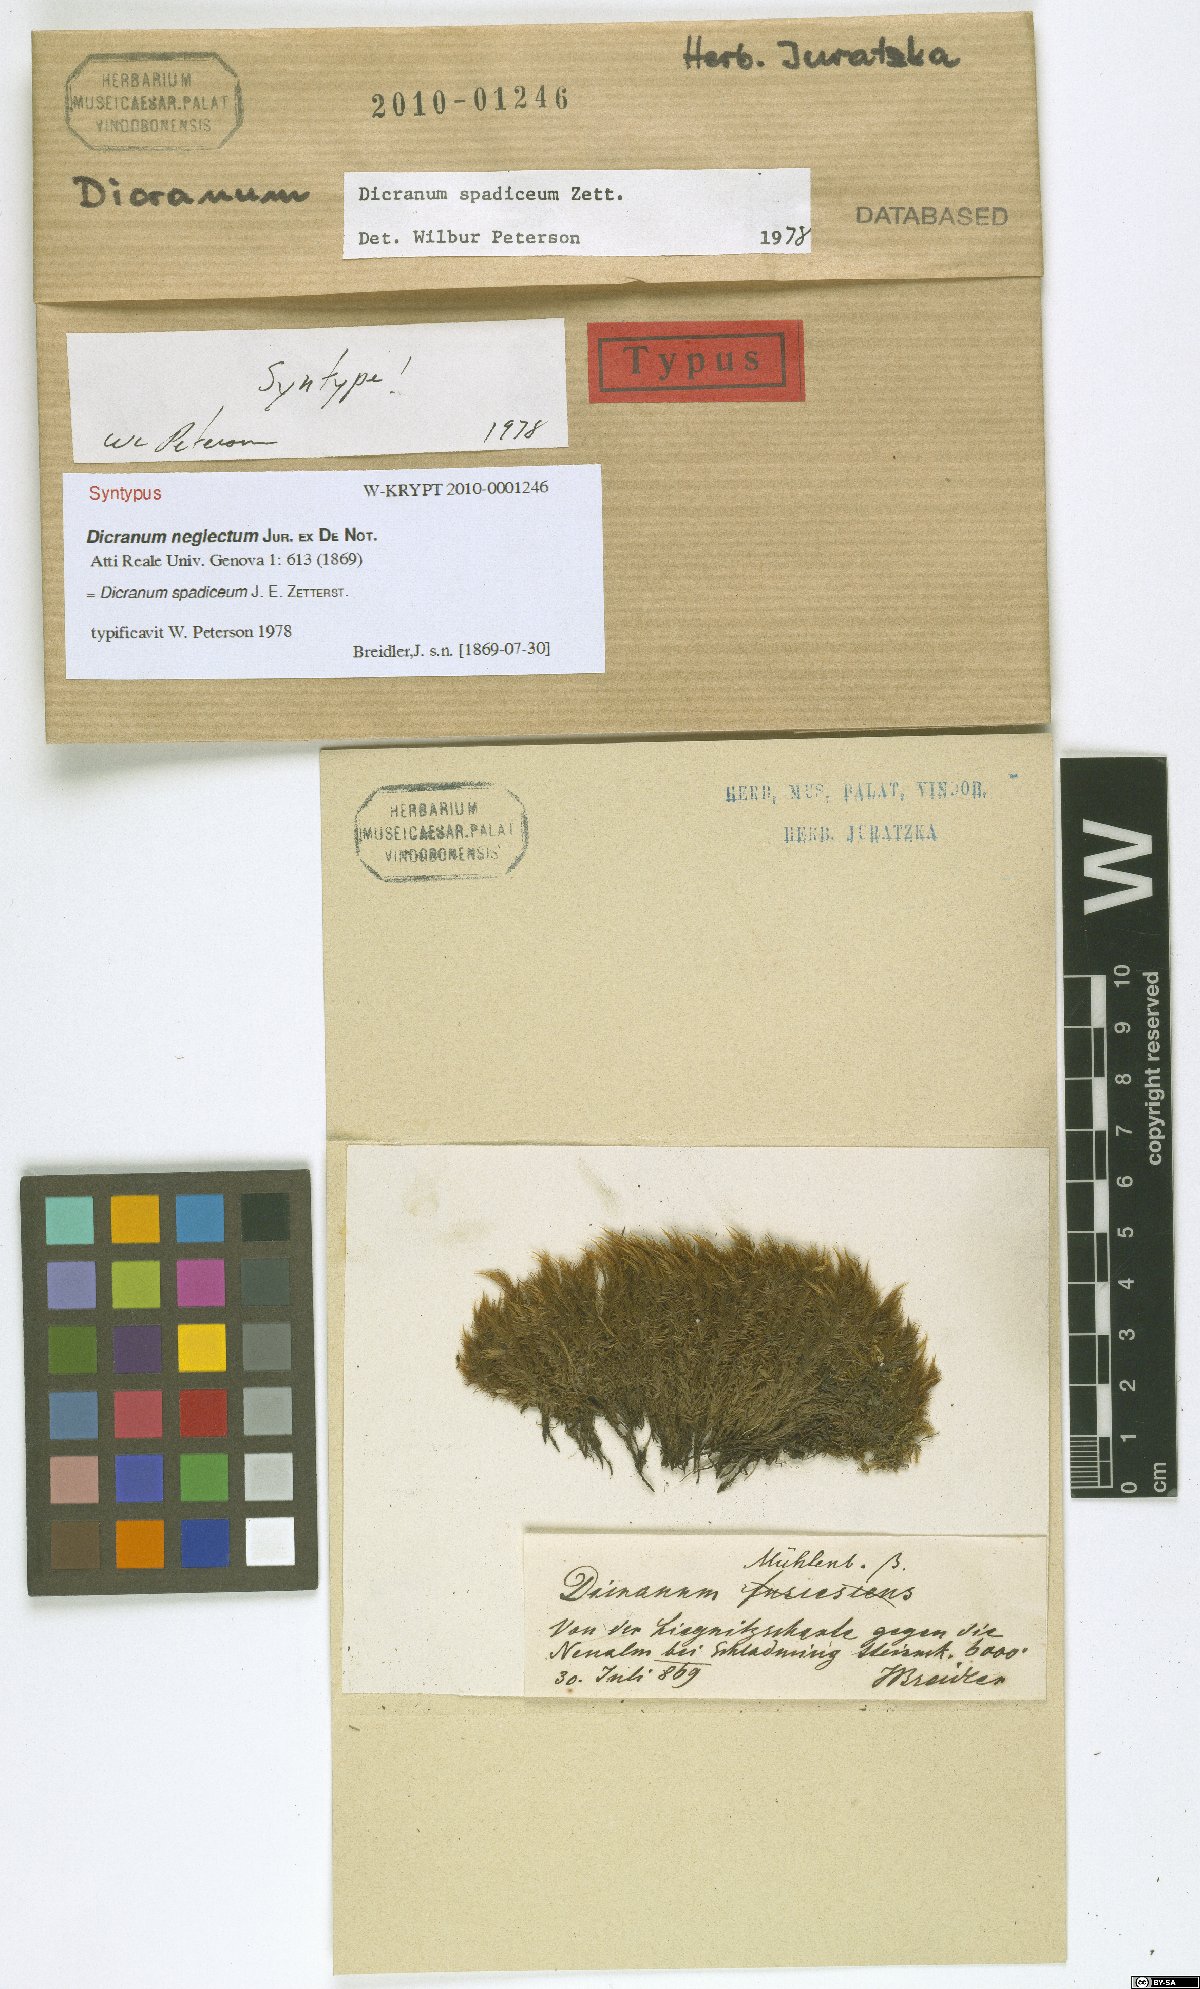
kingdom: Plantae
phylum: Bryophyta
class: Bryopsida
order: Dicranales
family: Dicranaceae
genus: Dicranum
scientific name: Dicranum spadiceum
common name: Confusing broom moss
